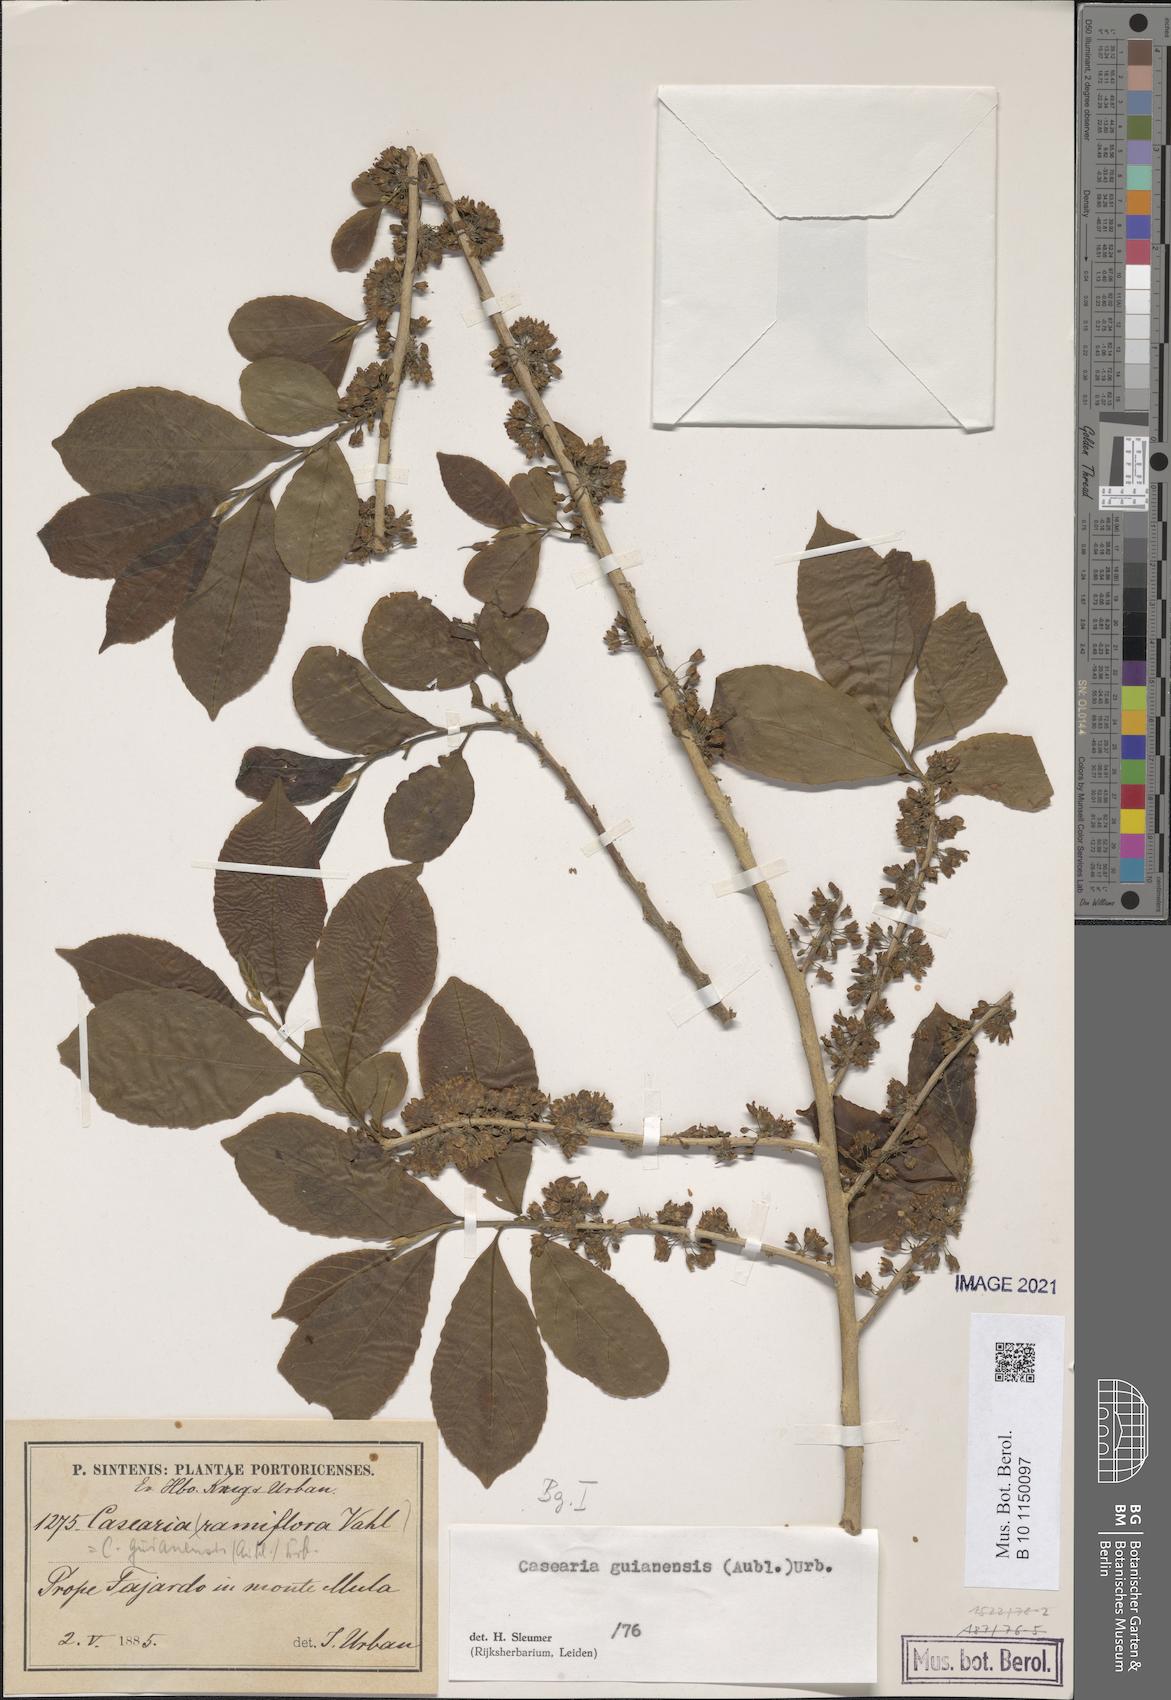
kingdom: Plantae
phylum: Tracheophyta
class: Magnoliopsida
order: Malpighiales
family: Salicaceae
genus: Casearia
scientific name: Casearia guianensis
